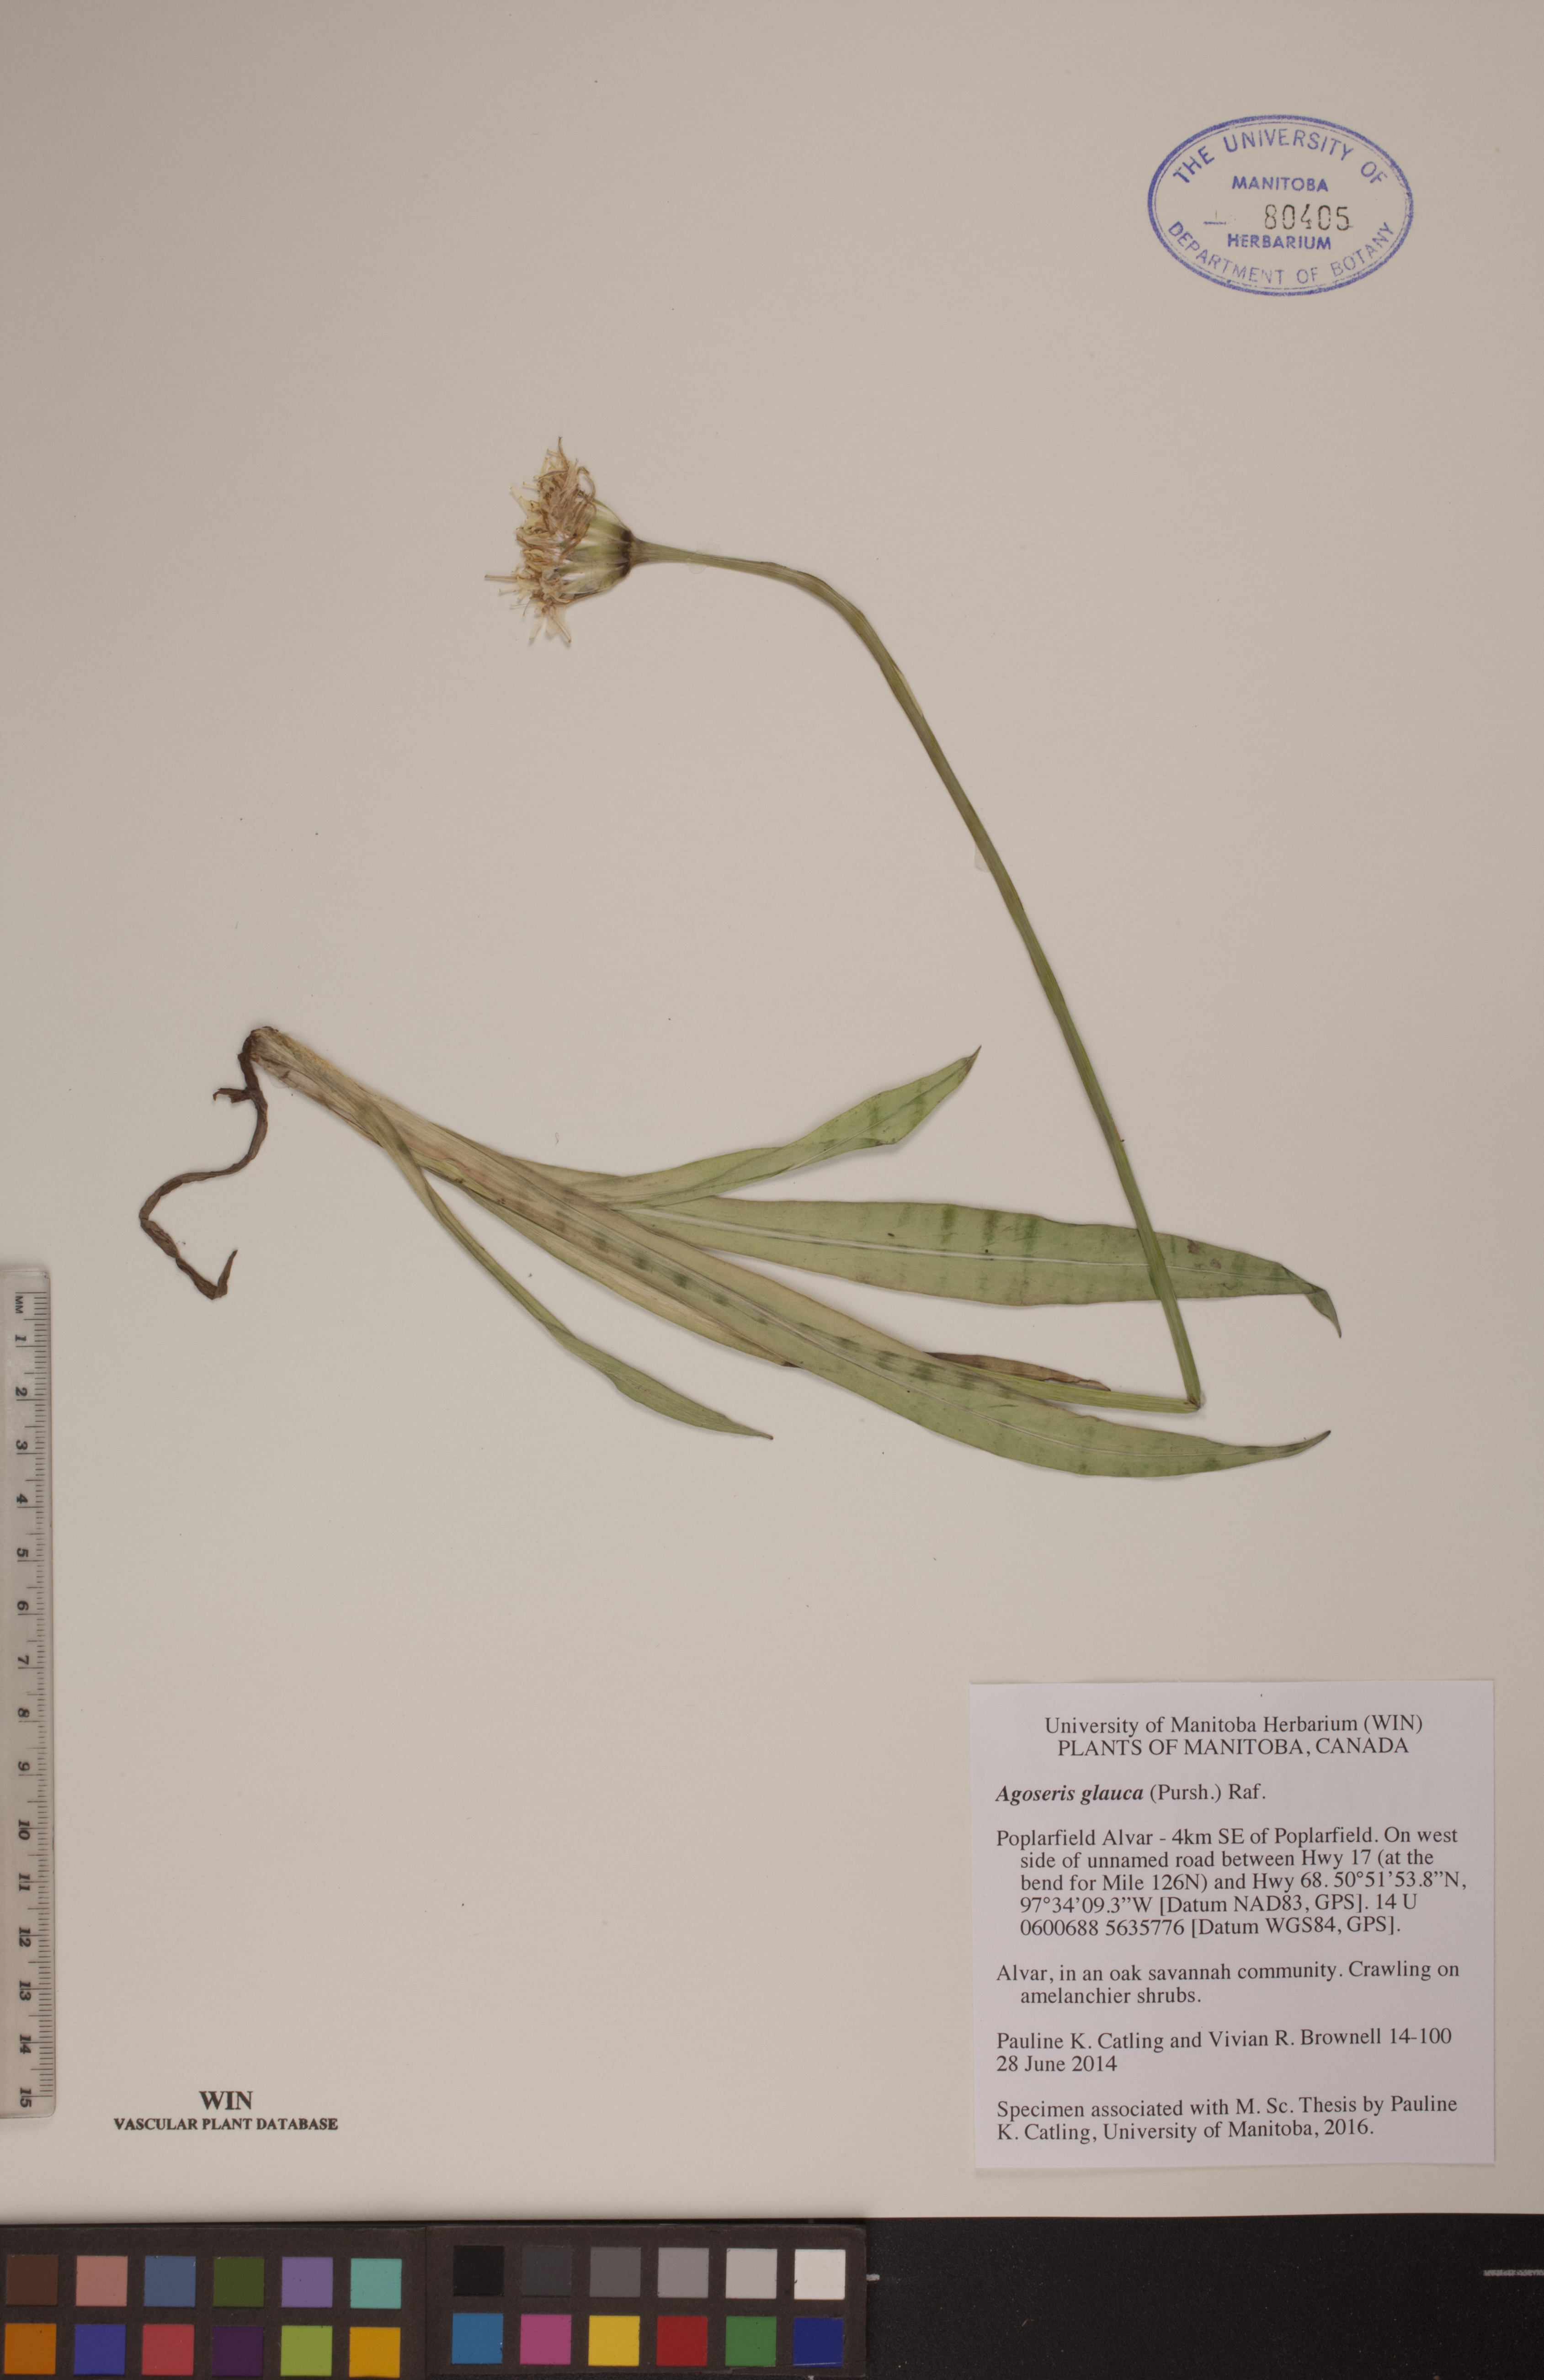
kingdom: Plantae
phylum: Tracheophyta
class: Magnoliopsida
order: Asterales
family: Asteraceae
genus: Agoseris
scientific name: Agoseris glauca
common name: Prairie agoseris
